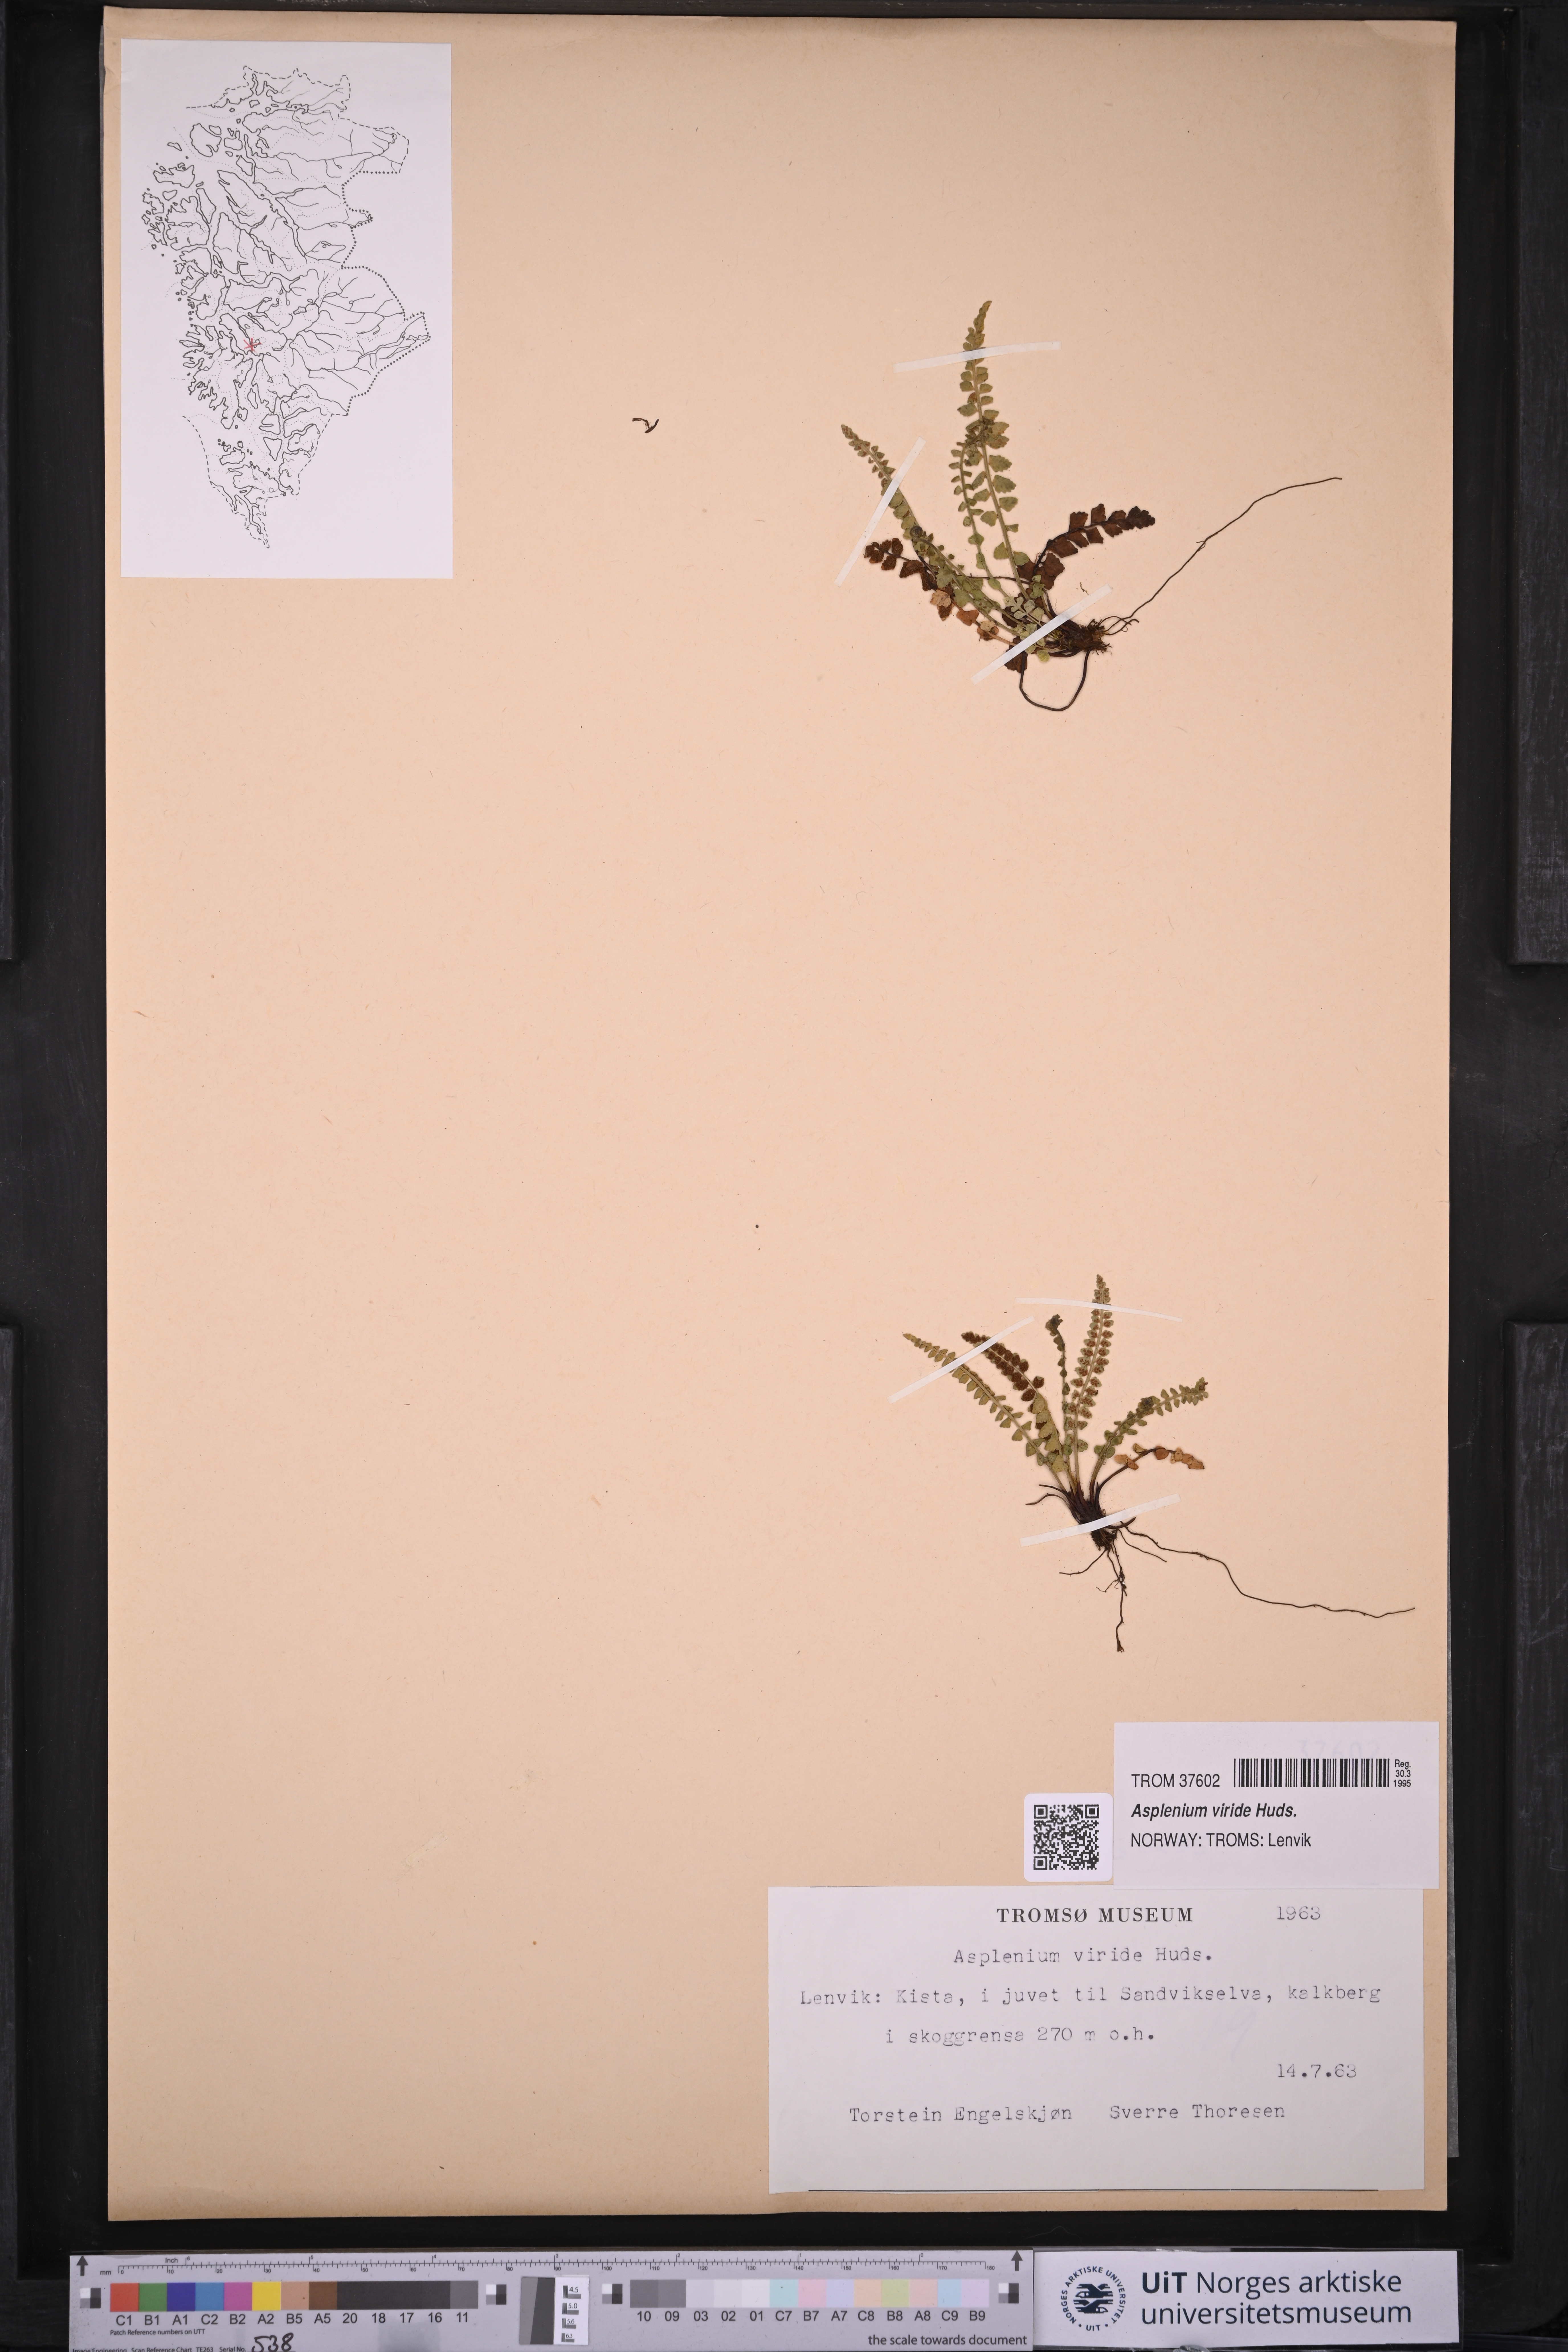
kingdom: Plantae
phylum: Tracheophyta
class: Polypodiopsida
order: Polypodiales
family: Aspleniaceae
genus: Asplenium
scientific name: Asplenium viride
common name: Green spleenwort
